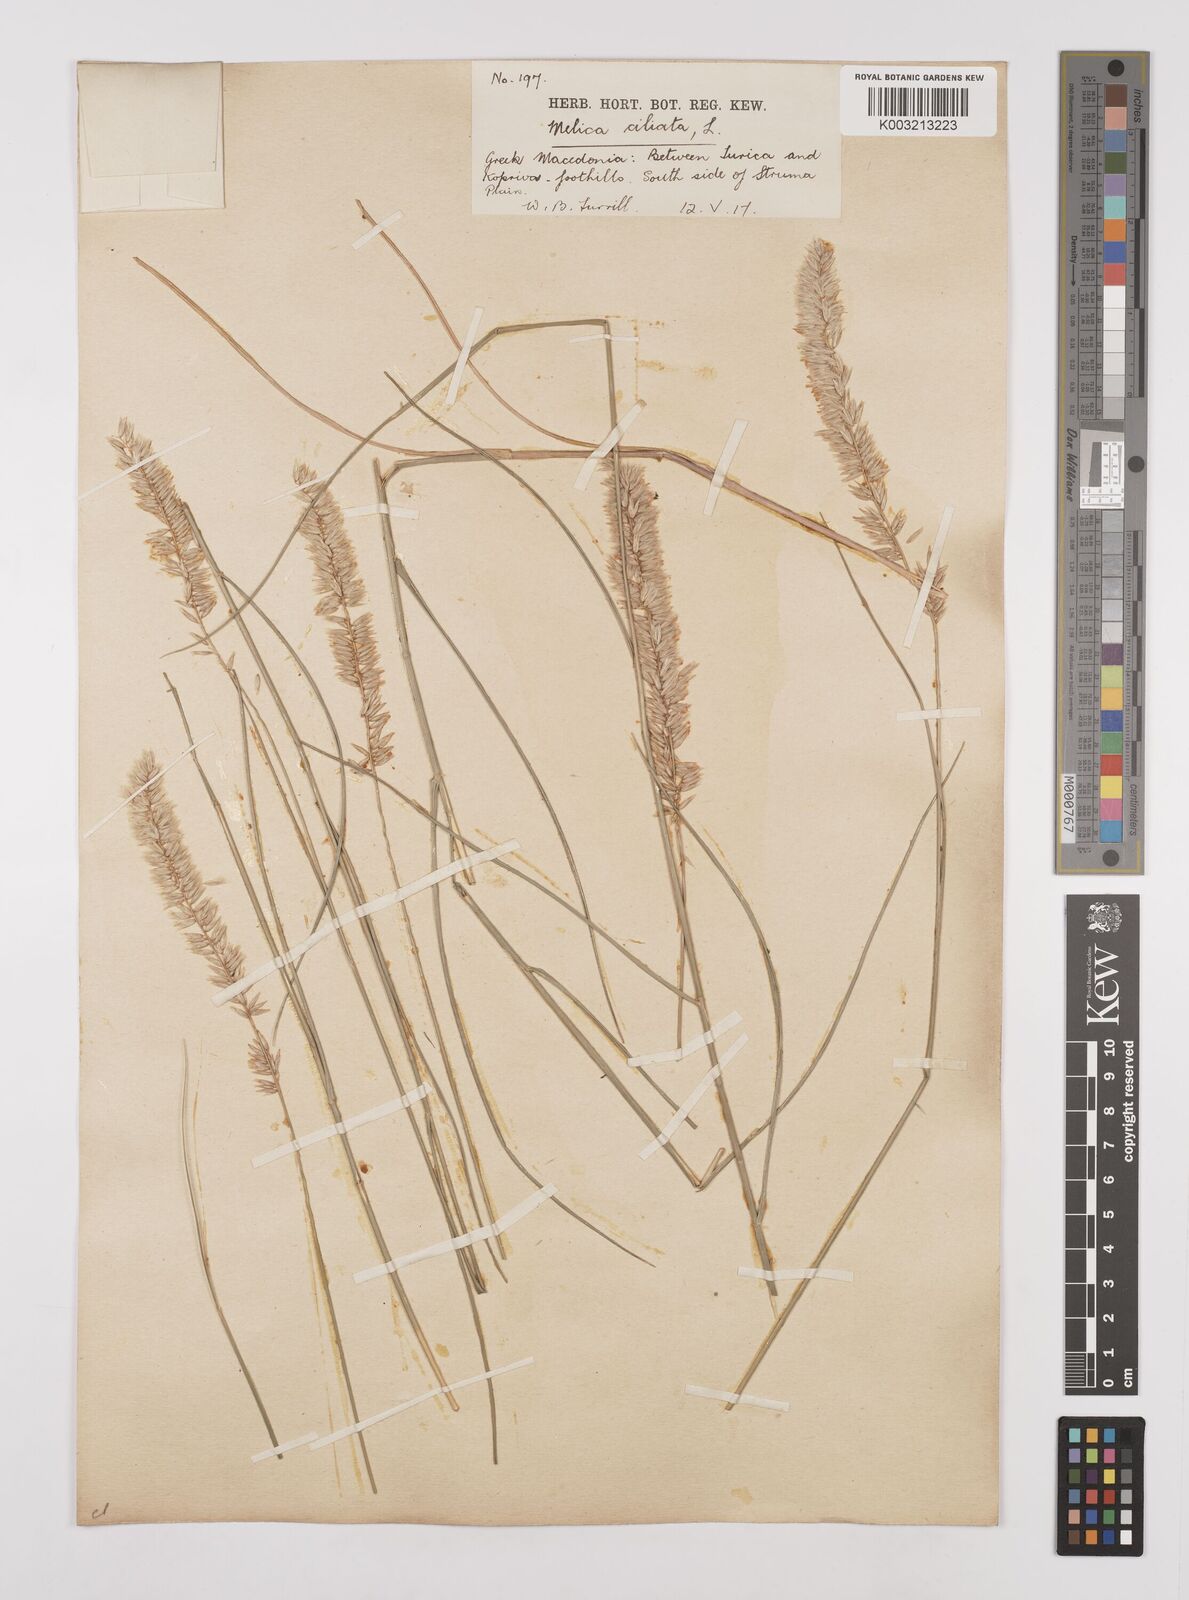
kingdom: Plantae
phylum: Tracheophyta
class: Liliopsida
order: Poales
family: Poaceae
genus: Melica
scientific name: Melica ciliata
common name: Hairy melicgrass
